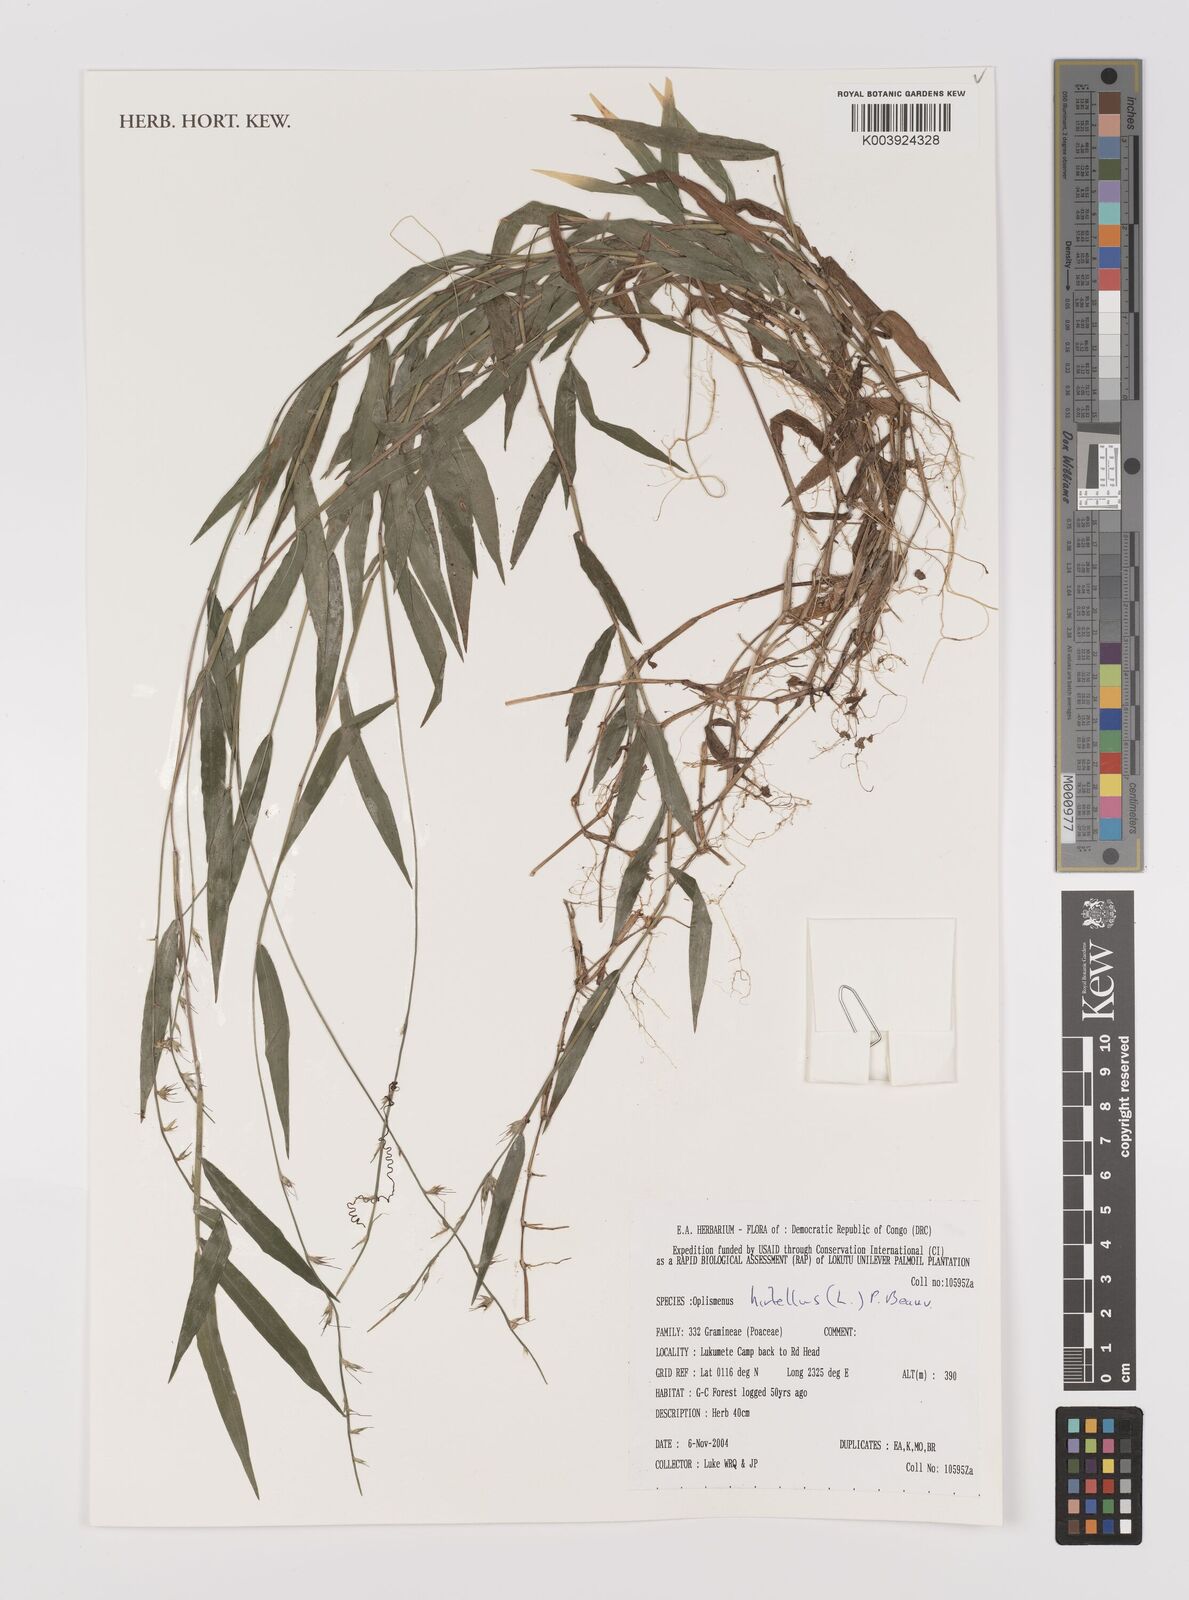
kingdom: Plantae
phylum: Tracheophyta
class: Liliopsida
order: Poales
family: Poaceae
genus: Oplismenus
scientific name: Oplismenus hirtellus
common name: Basketgrass
